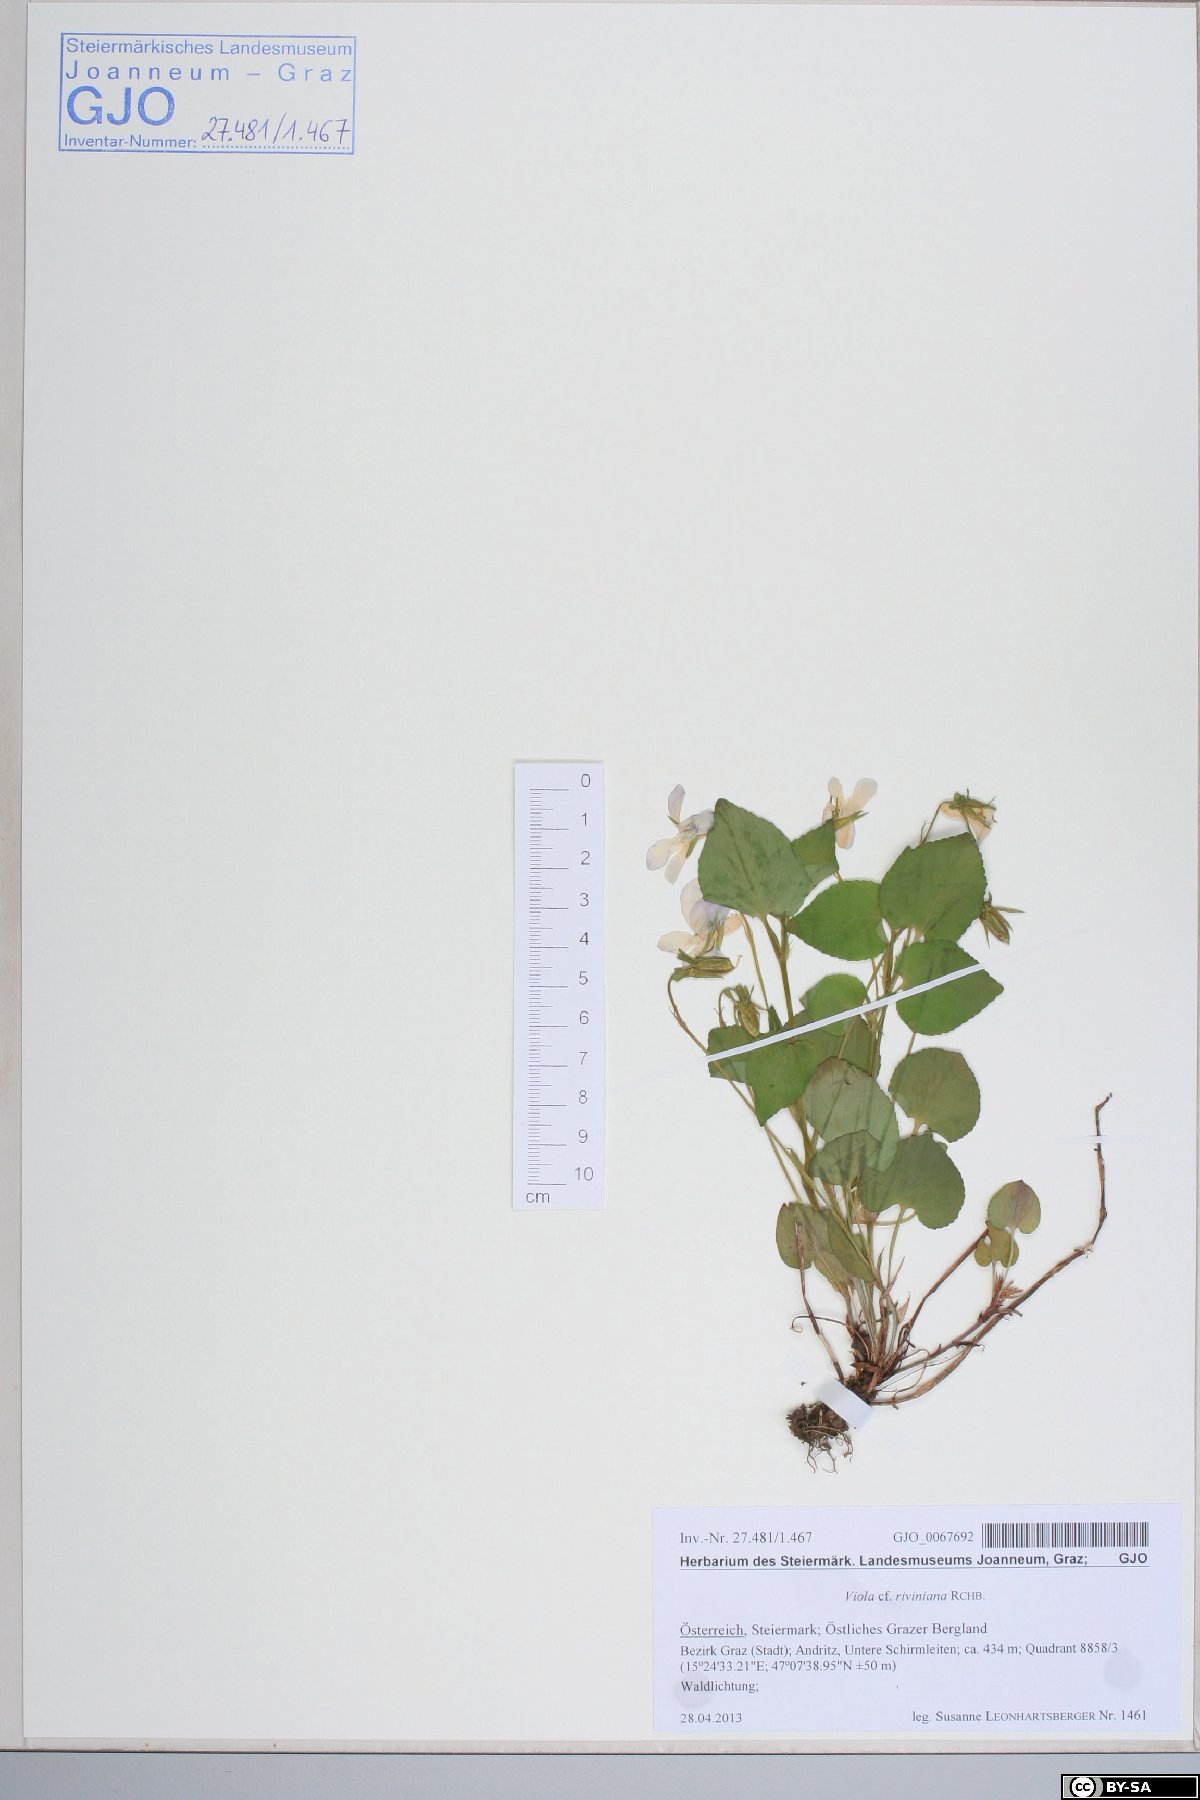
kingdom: Plantae
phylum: Tracheophyta
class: Magnoliopsida
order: Malpighiales
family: Violaceae
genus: Viola
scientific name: Viola riviniana
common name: Common dog-violet
